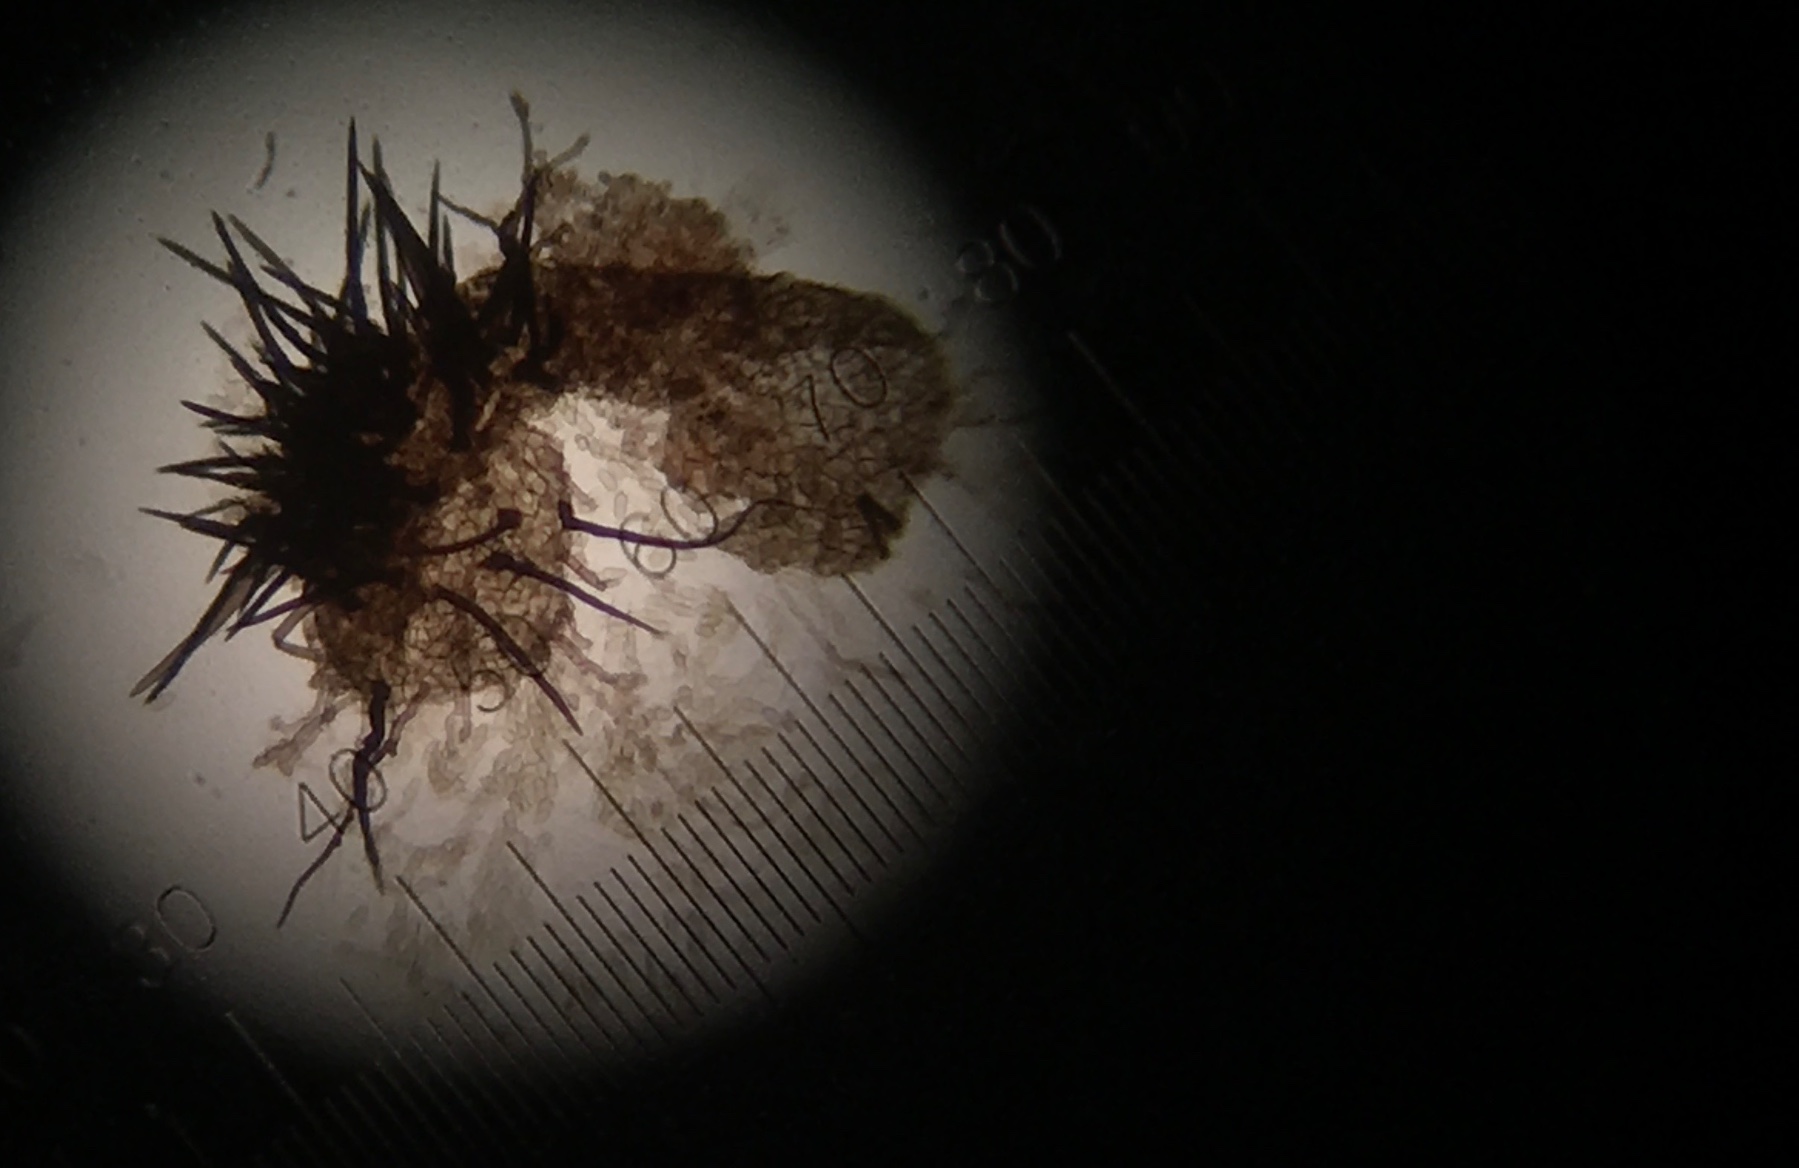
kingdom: Fungi
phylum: Ascomycota
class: Dothideomycetes
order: Venturiales
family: Venturiaceae
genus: Venturia
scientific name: Venturia chlorospora
